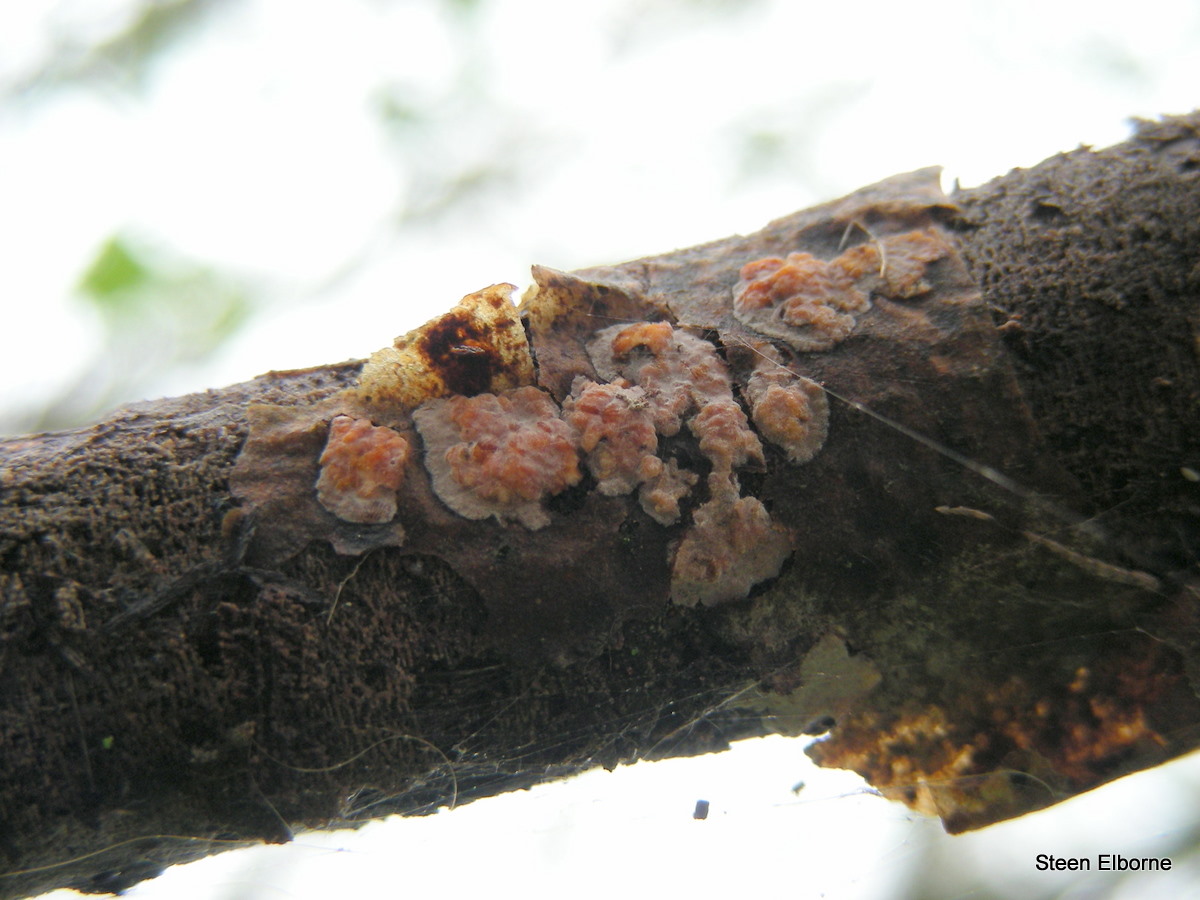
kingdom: Fungi
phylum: Basidiomycota
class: Agaricomycetes
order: Russulales
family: Peniophoraceae
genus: Peniophora
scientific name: Peniophora polygonia
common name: polygon-voksskind
